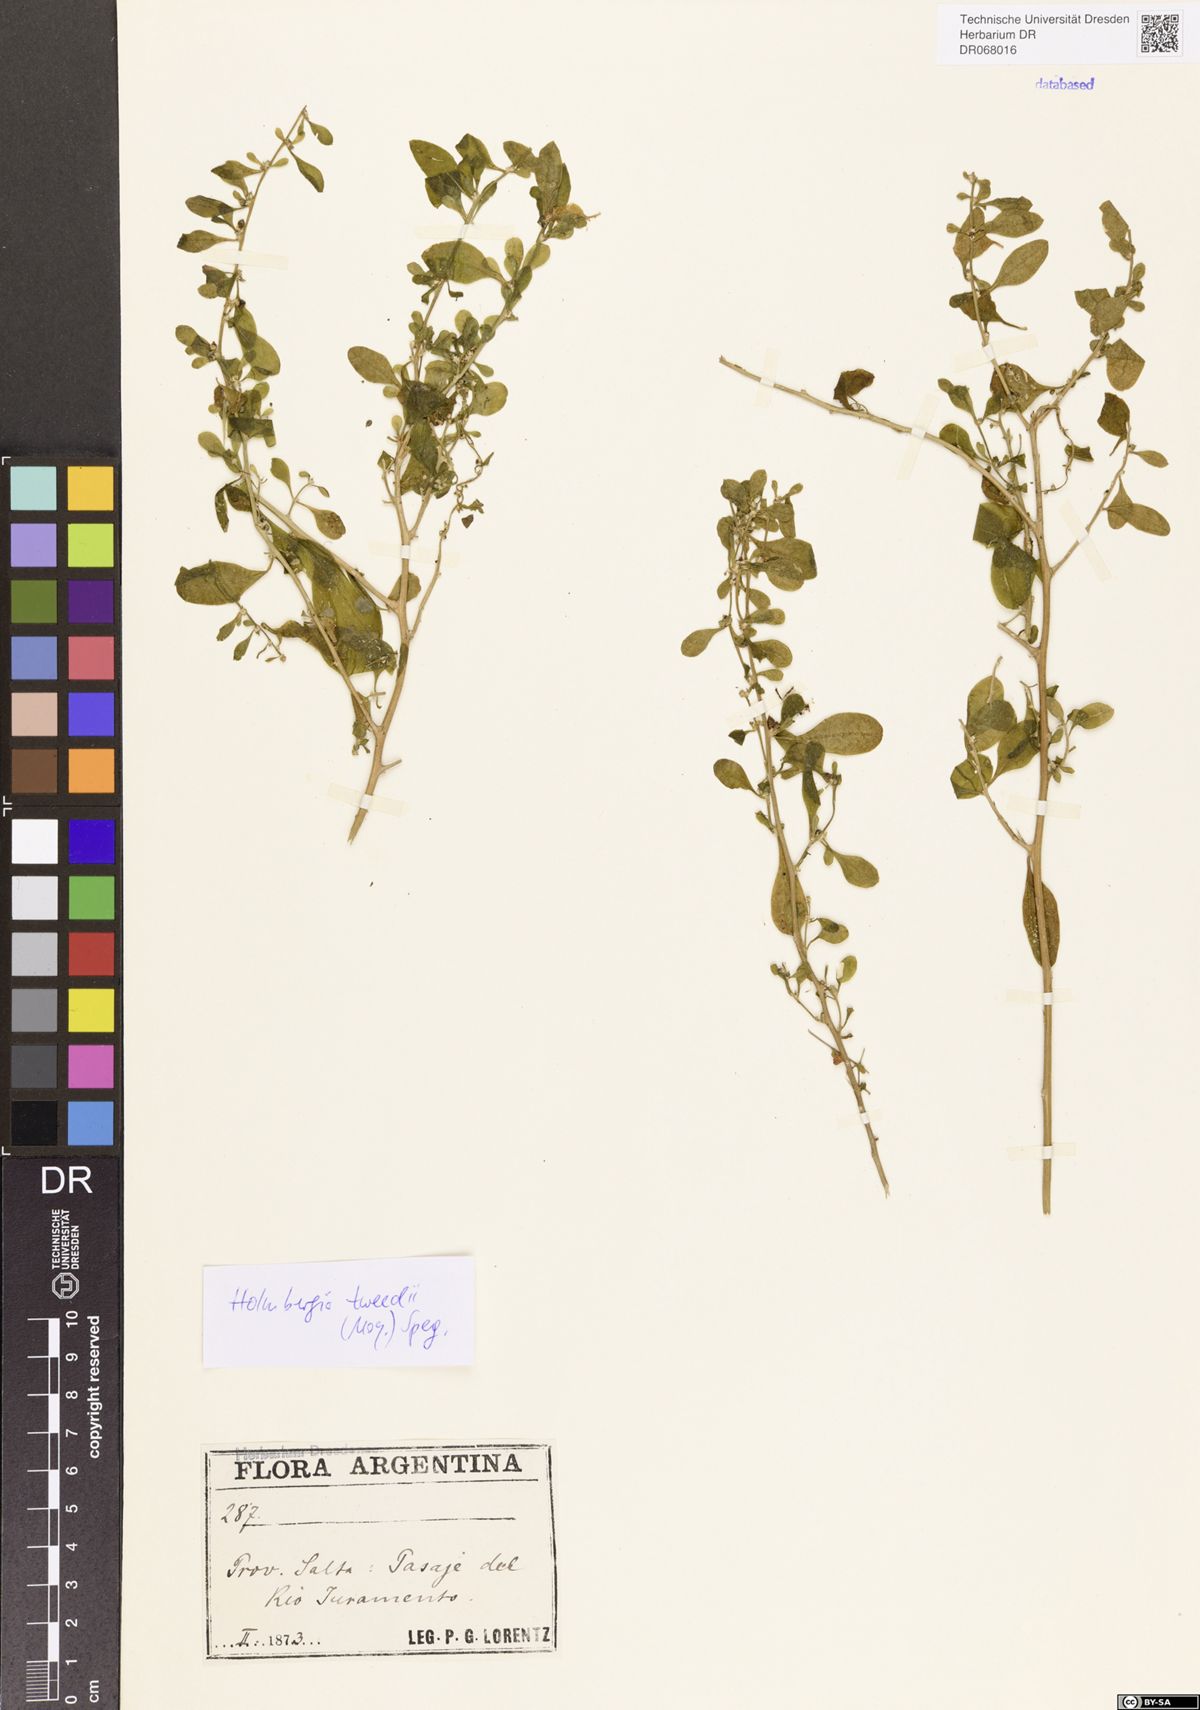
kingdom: Plantae
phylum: Tracheophyta
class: Magnoliopsida
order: Caryophyllales
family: Amaranthaceae
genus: Holmbergia
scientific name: Holmbergia tweedii
